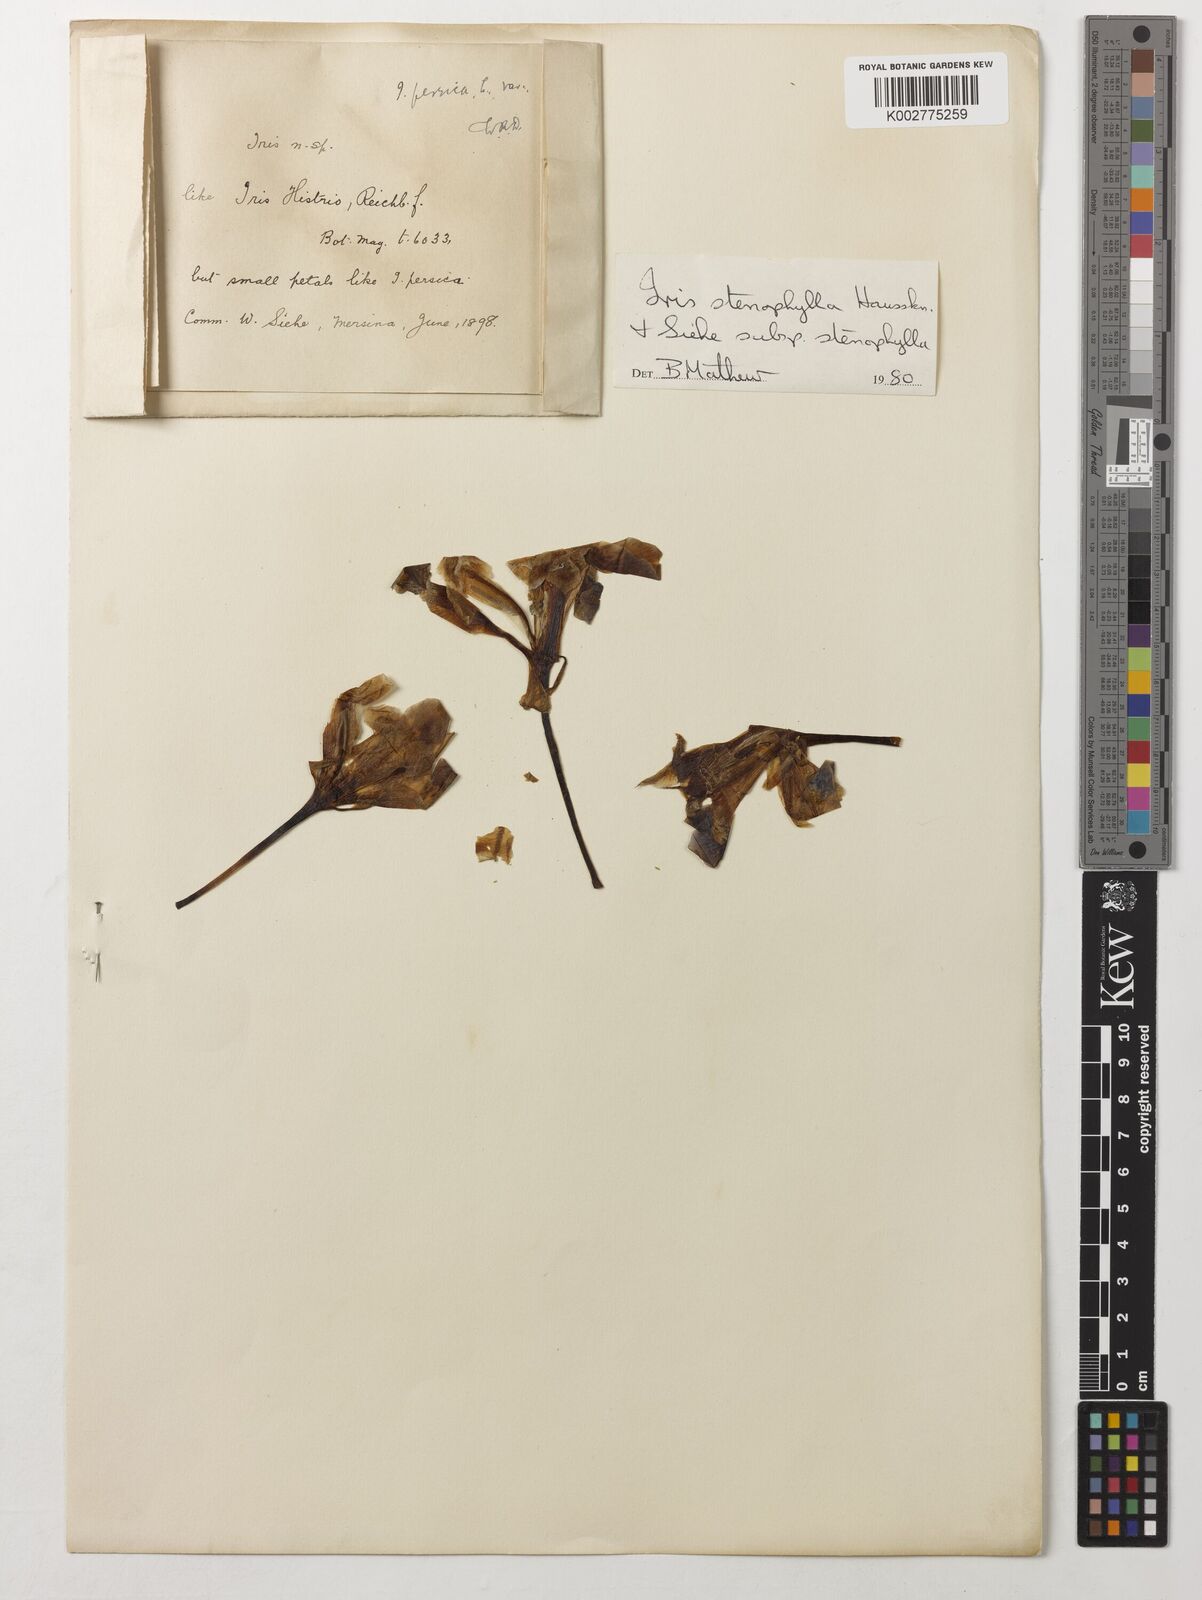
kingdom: Plantae
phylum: Tracheophyta
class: Liliopsida
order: Asparagales
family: Iridaceae
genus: Iris
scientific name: Iris stenophylla
